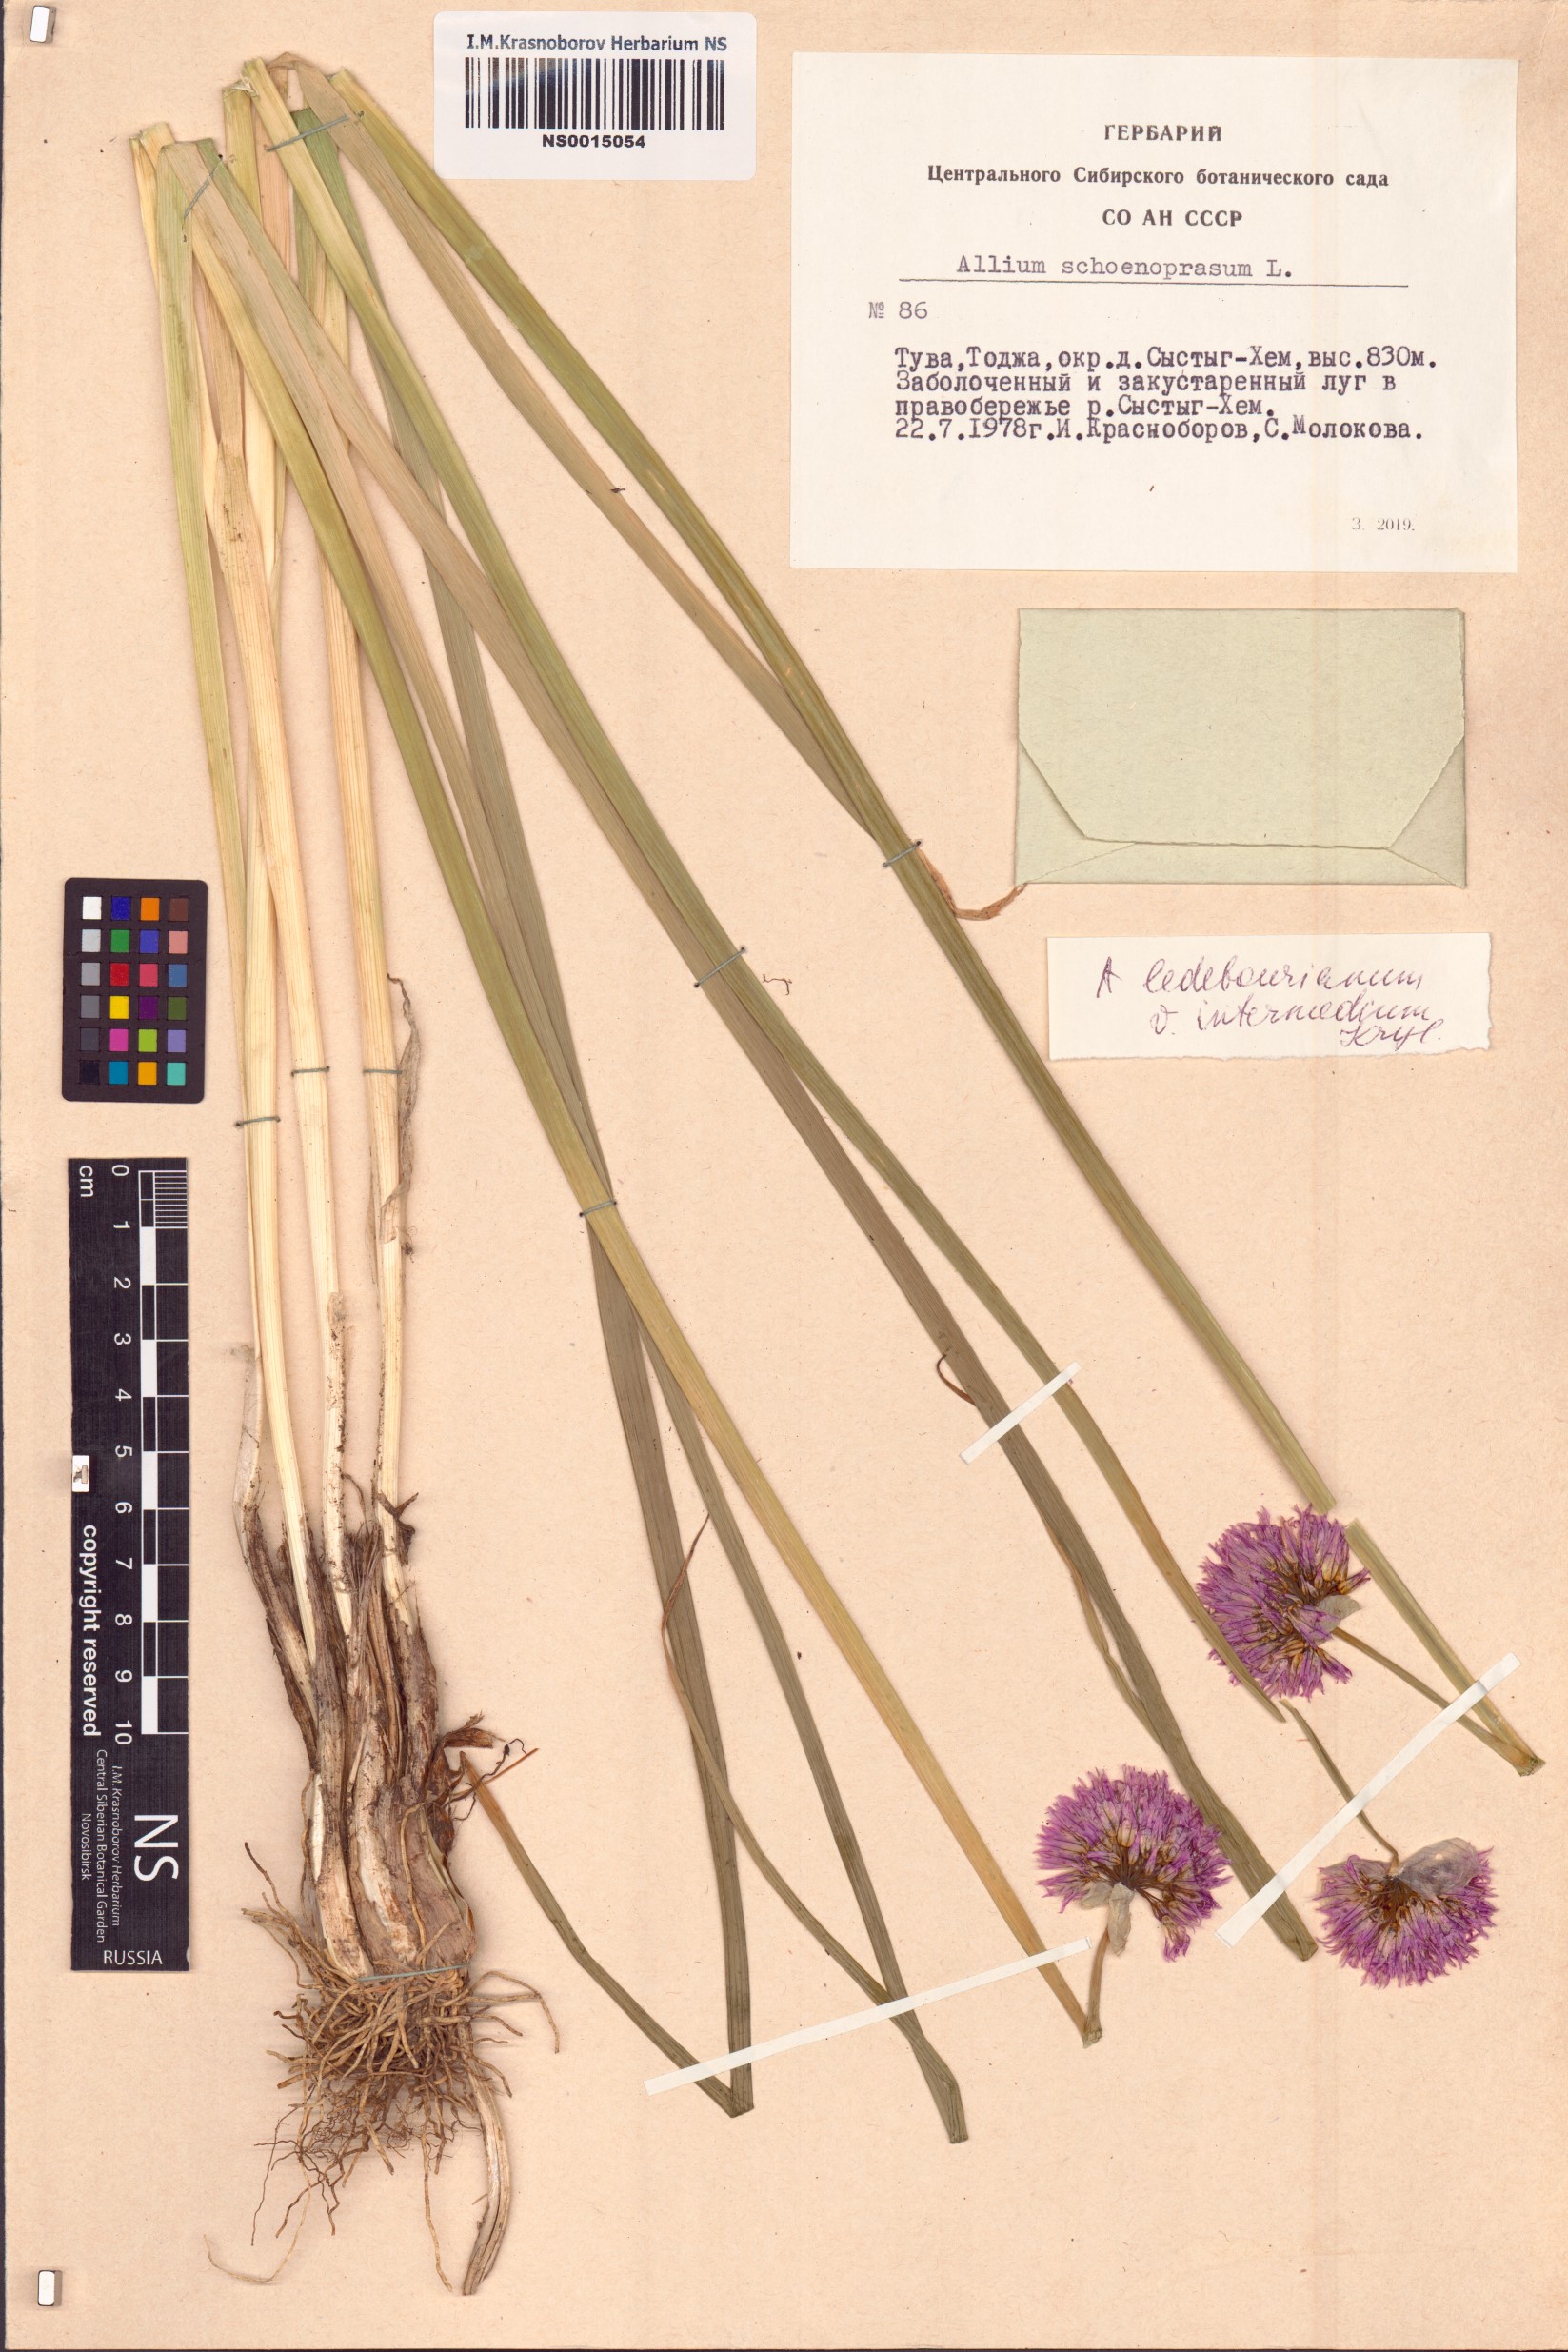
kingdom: Plantae
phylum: Tracheophyta
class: Liliopsida
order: Asparagales
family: Amaryllidaceae
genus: Allium
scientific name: Allium ledebourianum
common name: Ledebour chive
